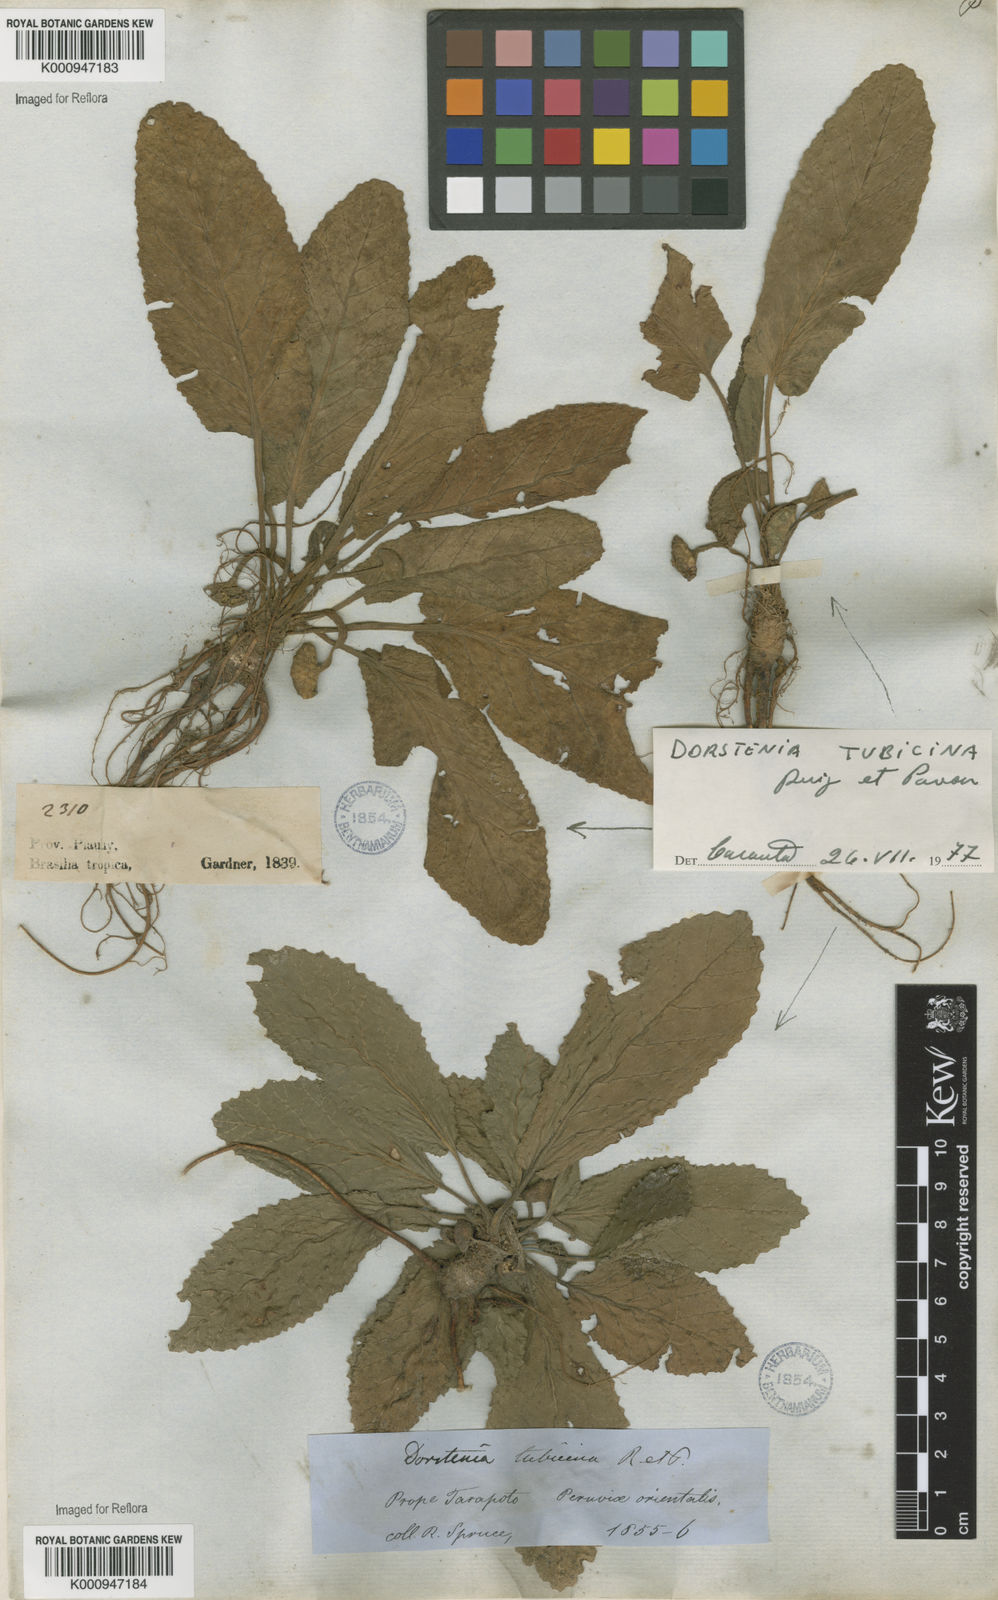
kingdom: Plantae
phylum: Tracheophyta
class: Magnoliopsida
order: Rosales
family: Moraceae
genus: Dorstenia
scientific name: Dorstenia brasiliensis
